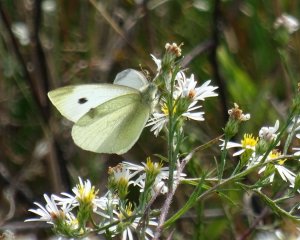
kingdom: Animalia
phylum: Arthropoda
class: Insecta
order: Lepidoptera
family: Pieridae
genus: Pieris
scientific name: Pieris rapae
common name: Cabbage White
